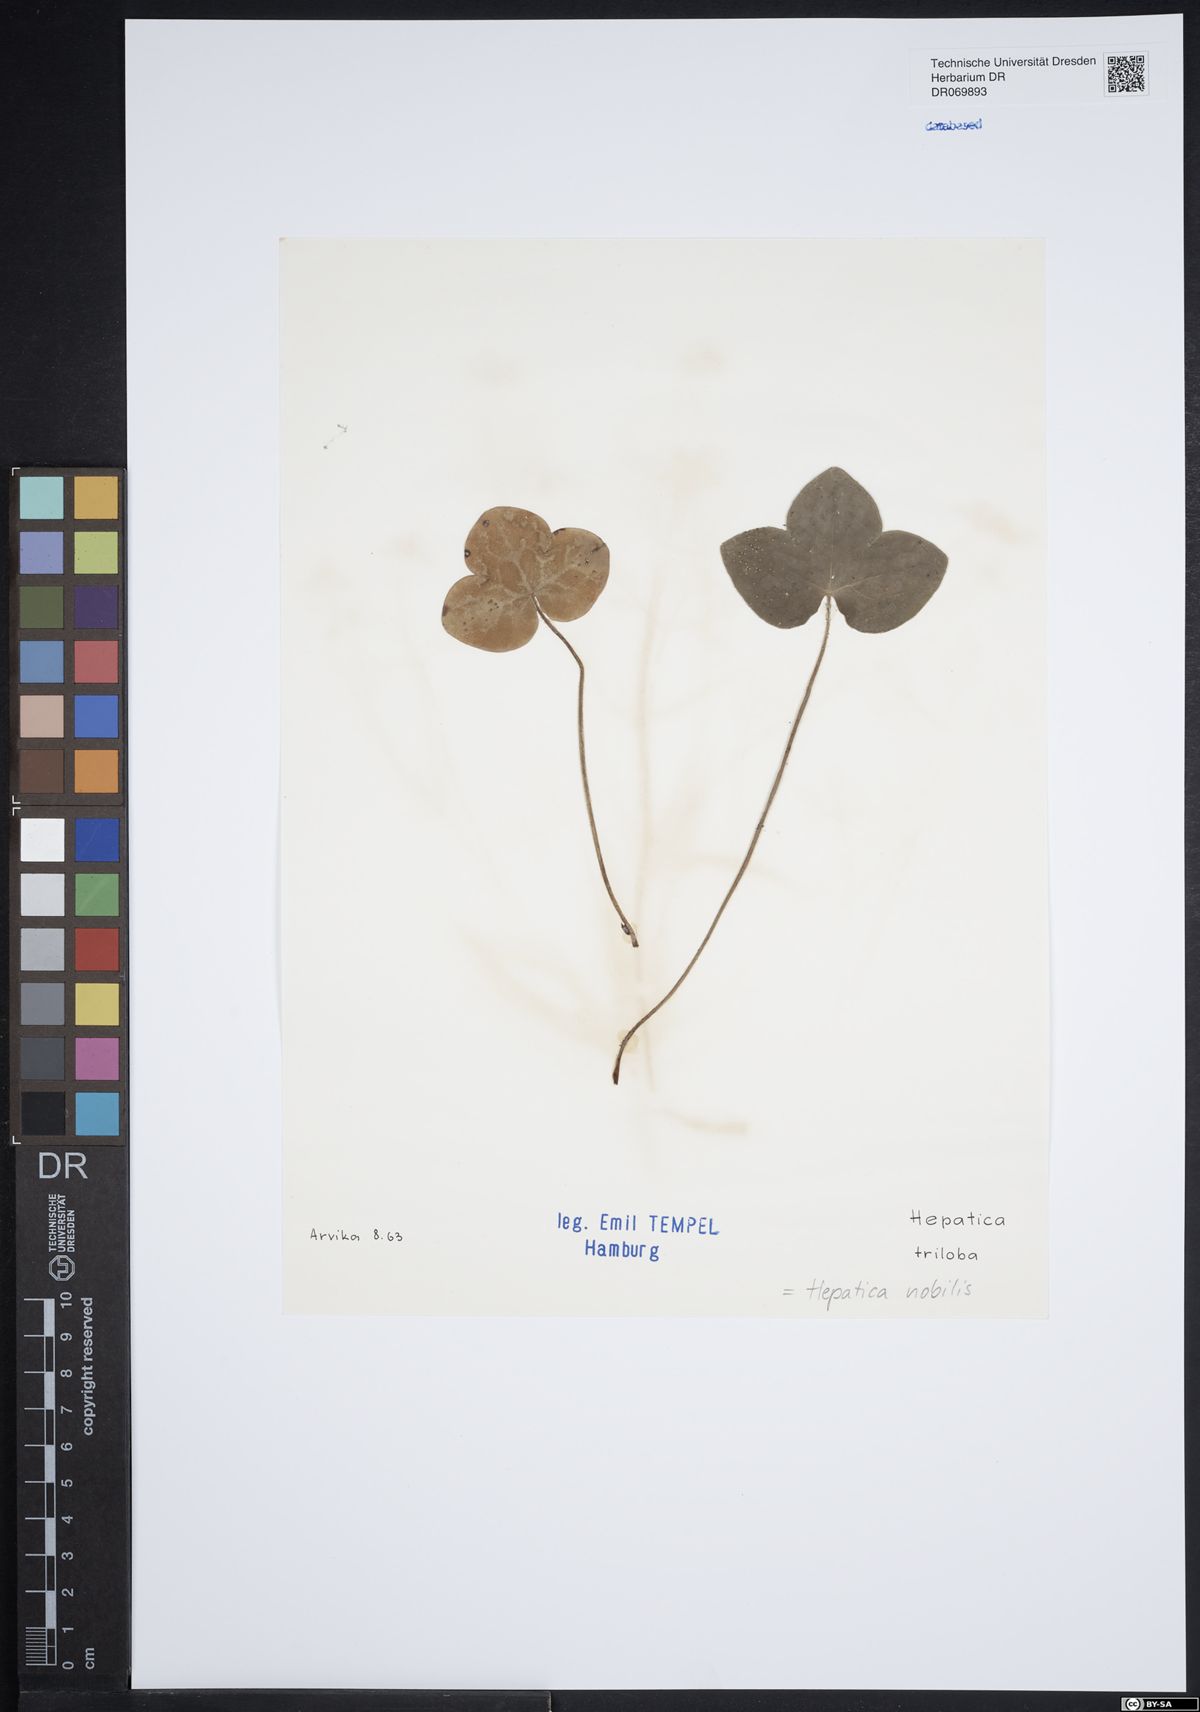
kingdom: Plantae
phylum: Tracheophyta
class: Magnoliopsida
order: Ranunculales
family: Ranunculaceae
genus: Hepatica
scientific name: Hepatica nobilis
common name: Liverleaf
